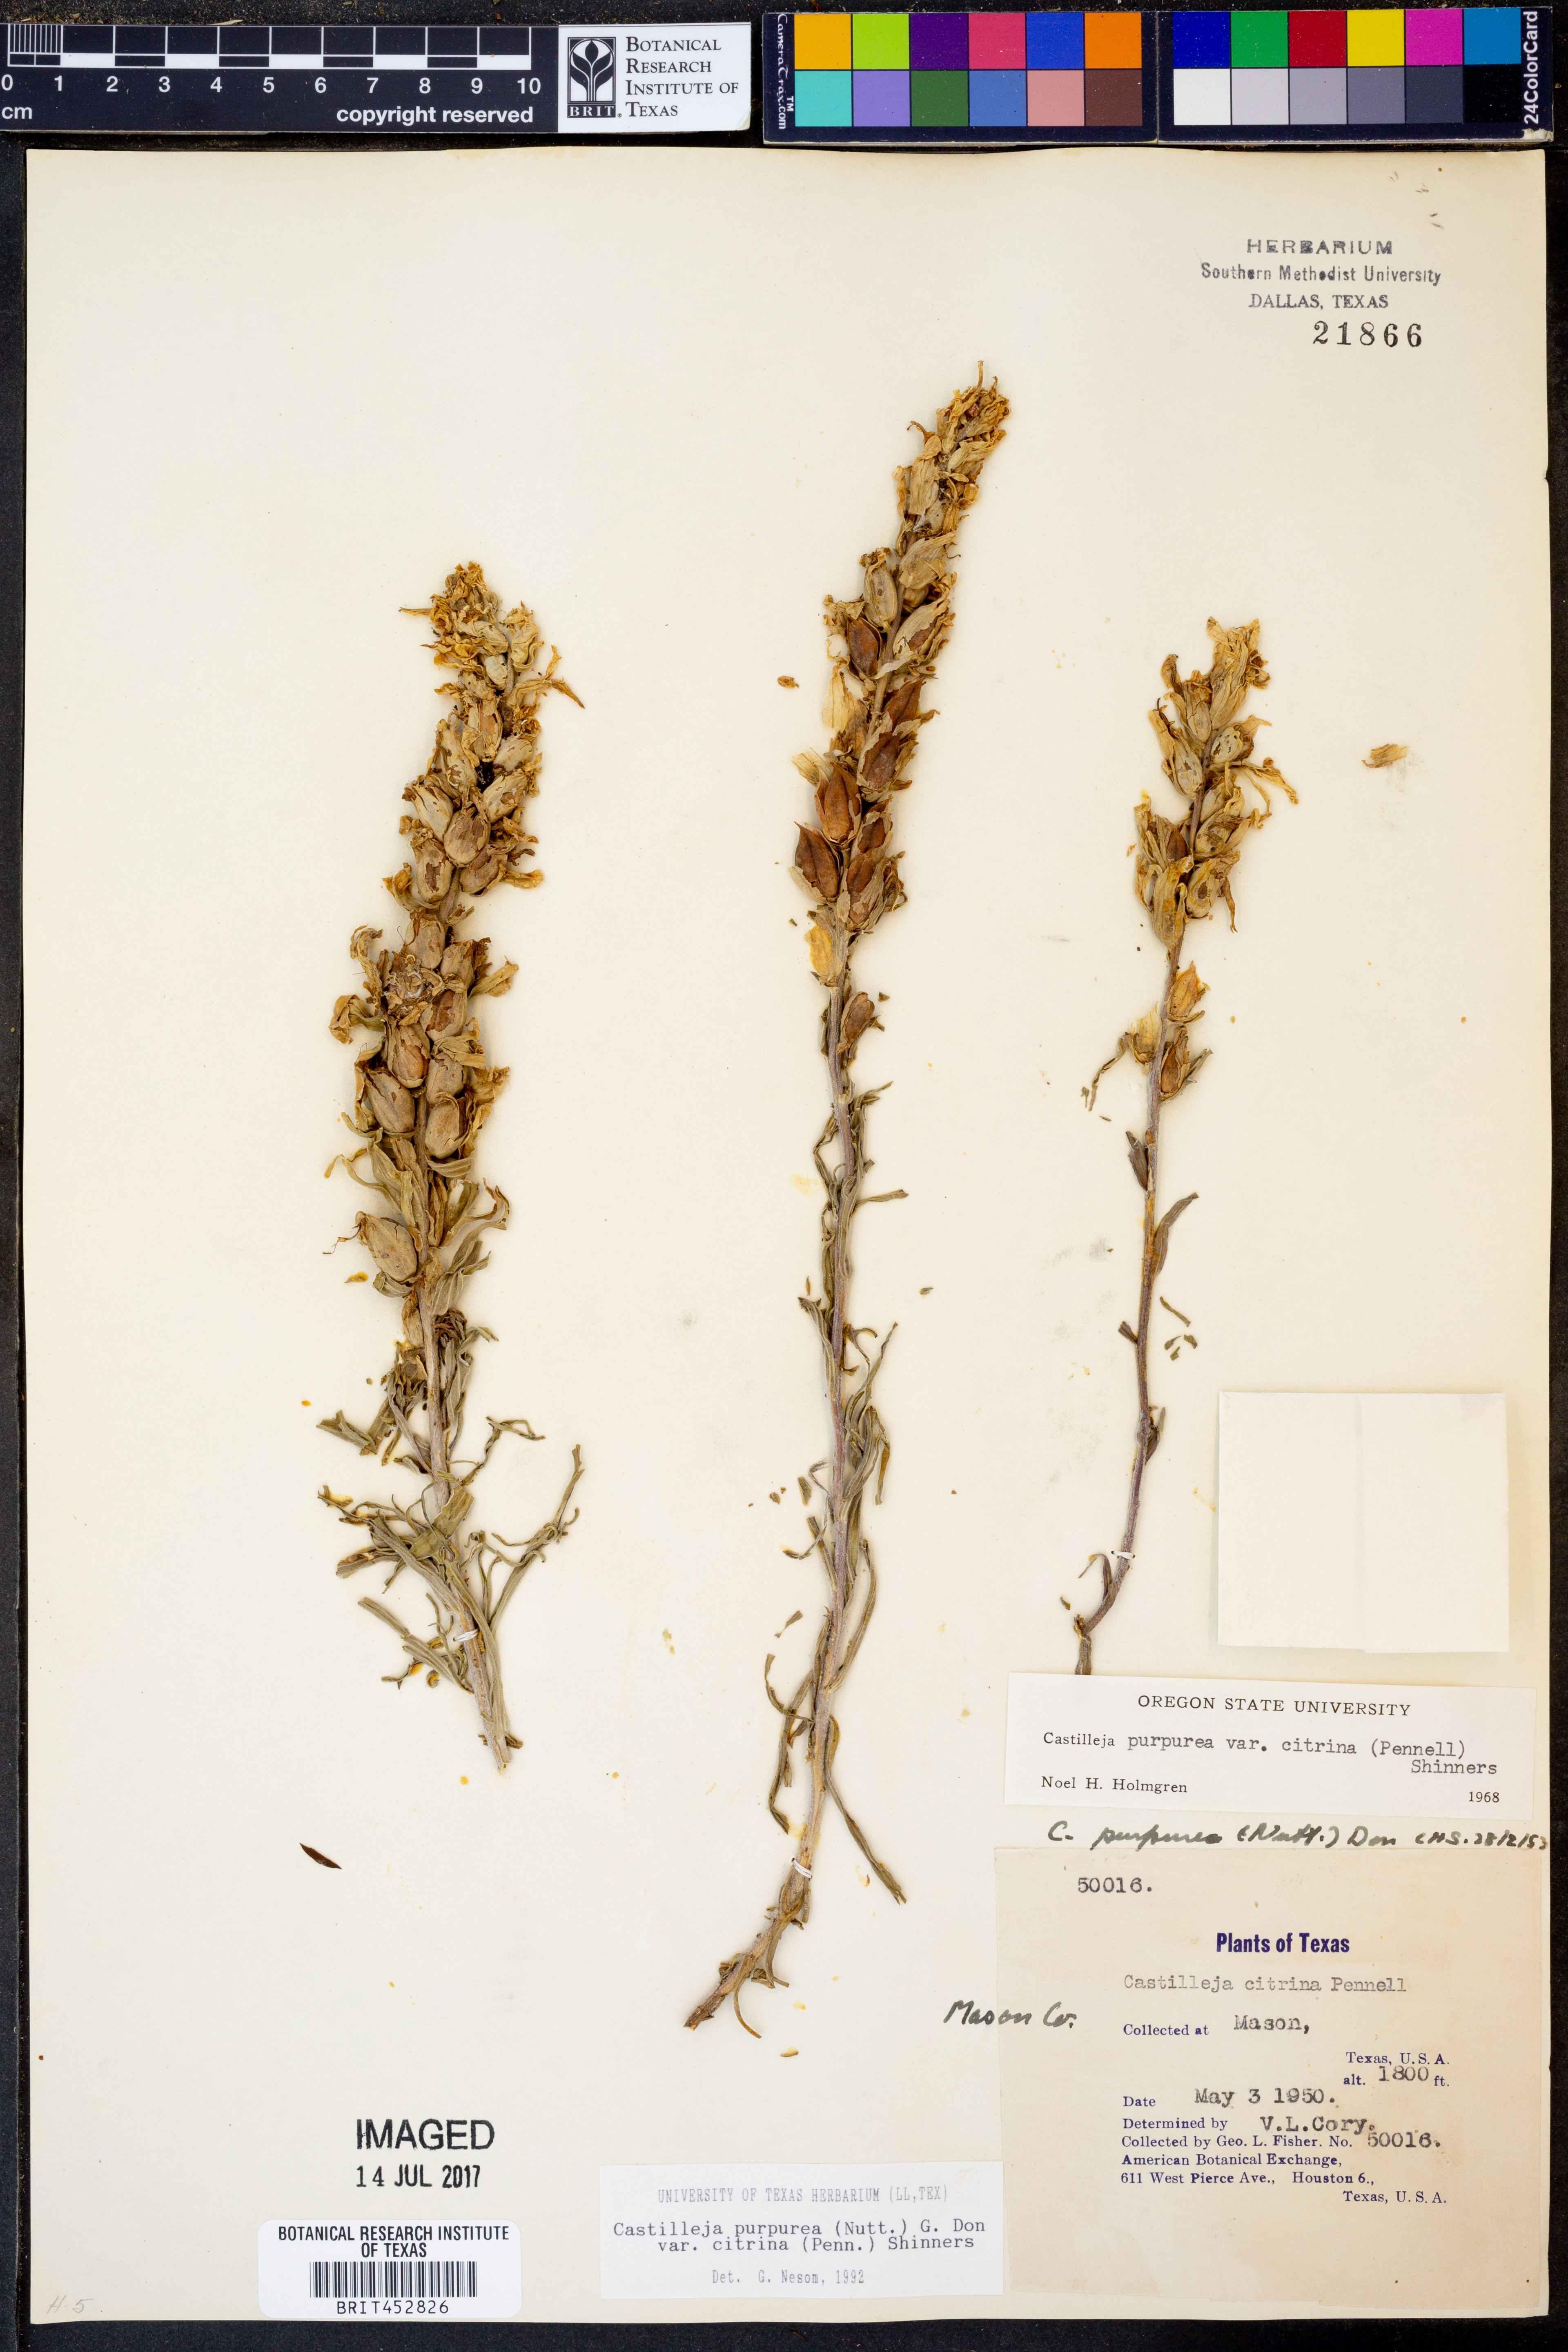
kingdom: Plantae
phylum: Tracheophyta
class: Magnoliopsida
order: Lamiales
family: Orobanchaceae
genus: Castilleja
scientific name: Castilleja citrina
